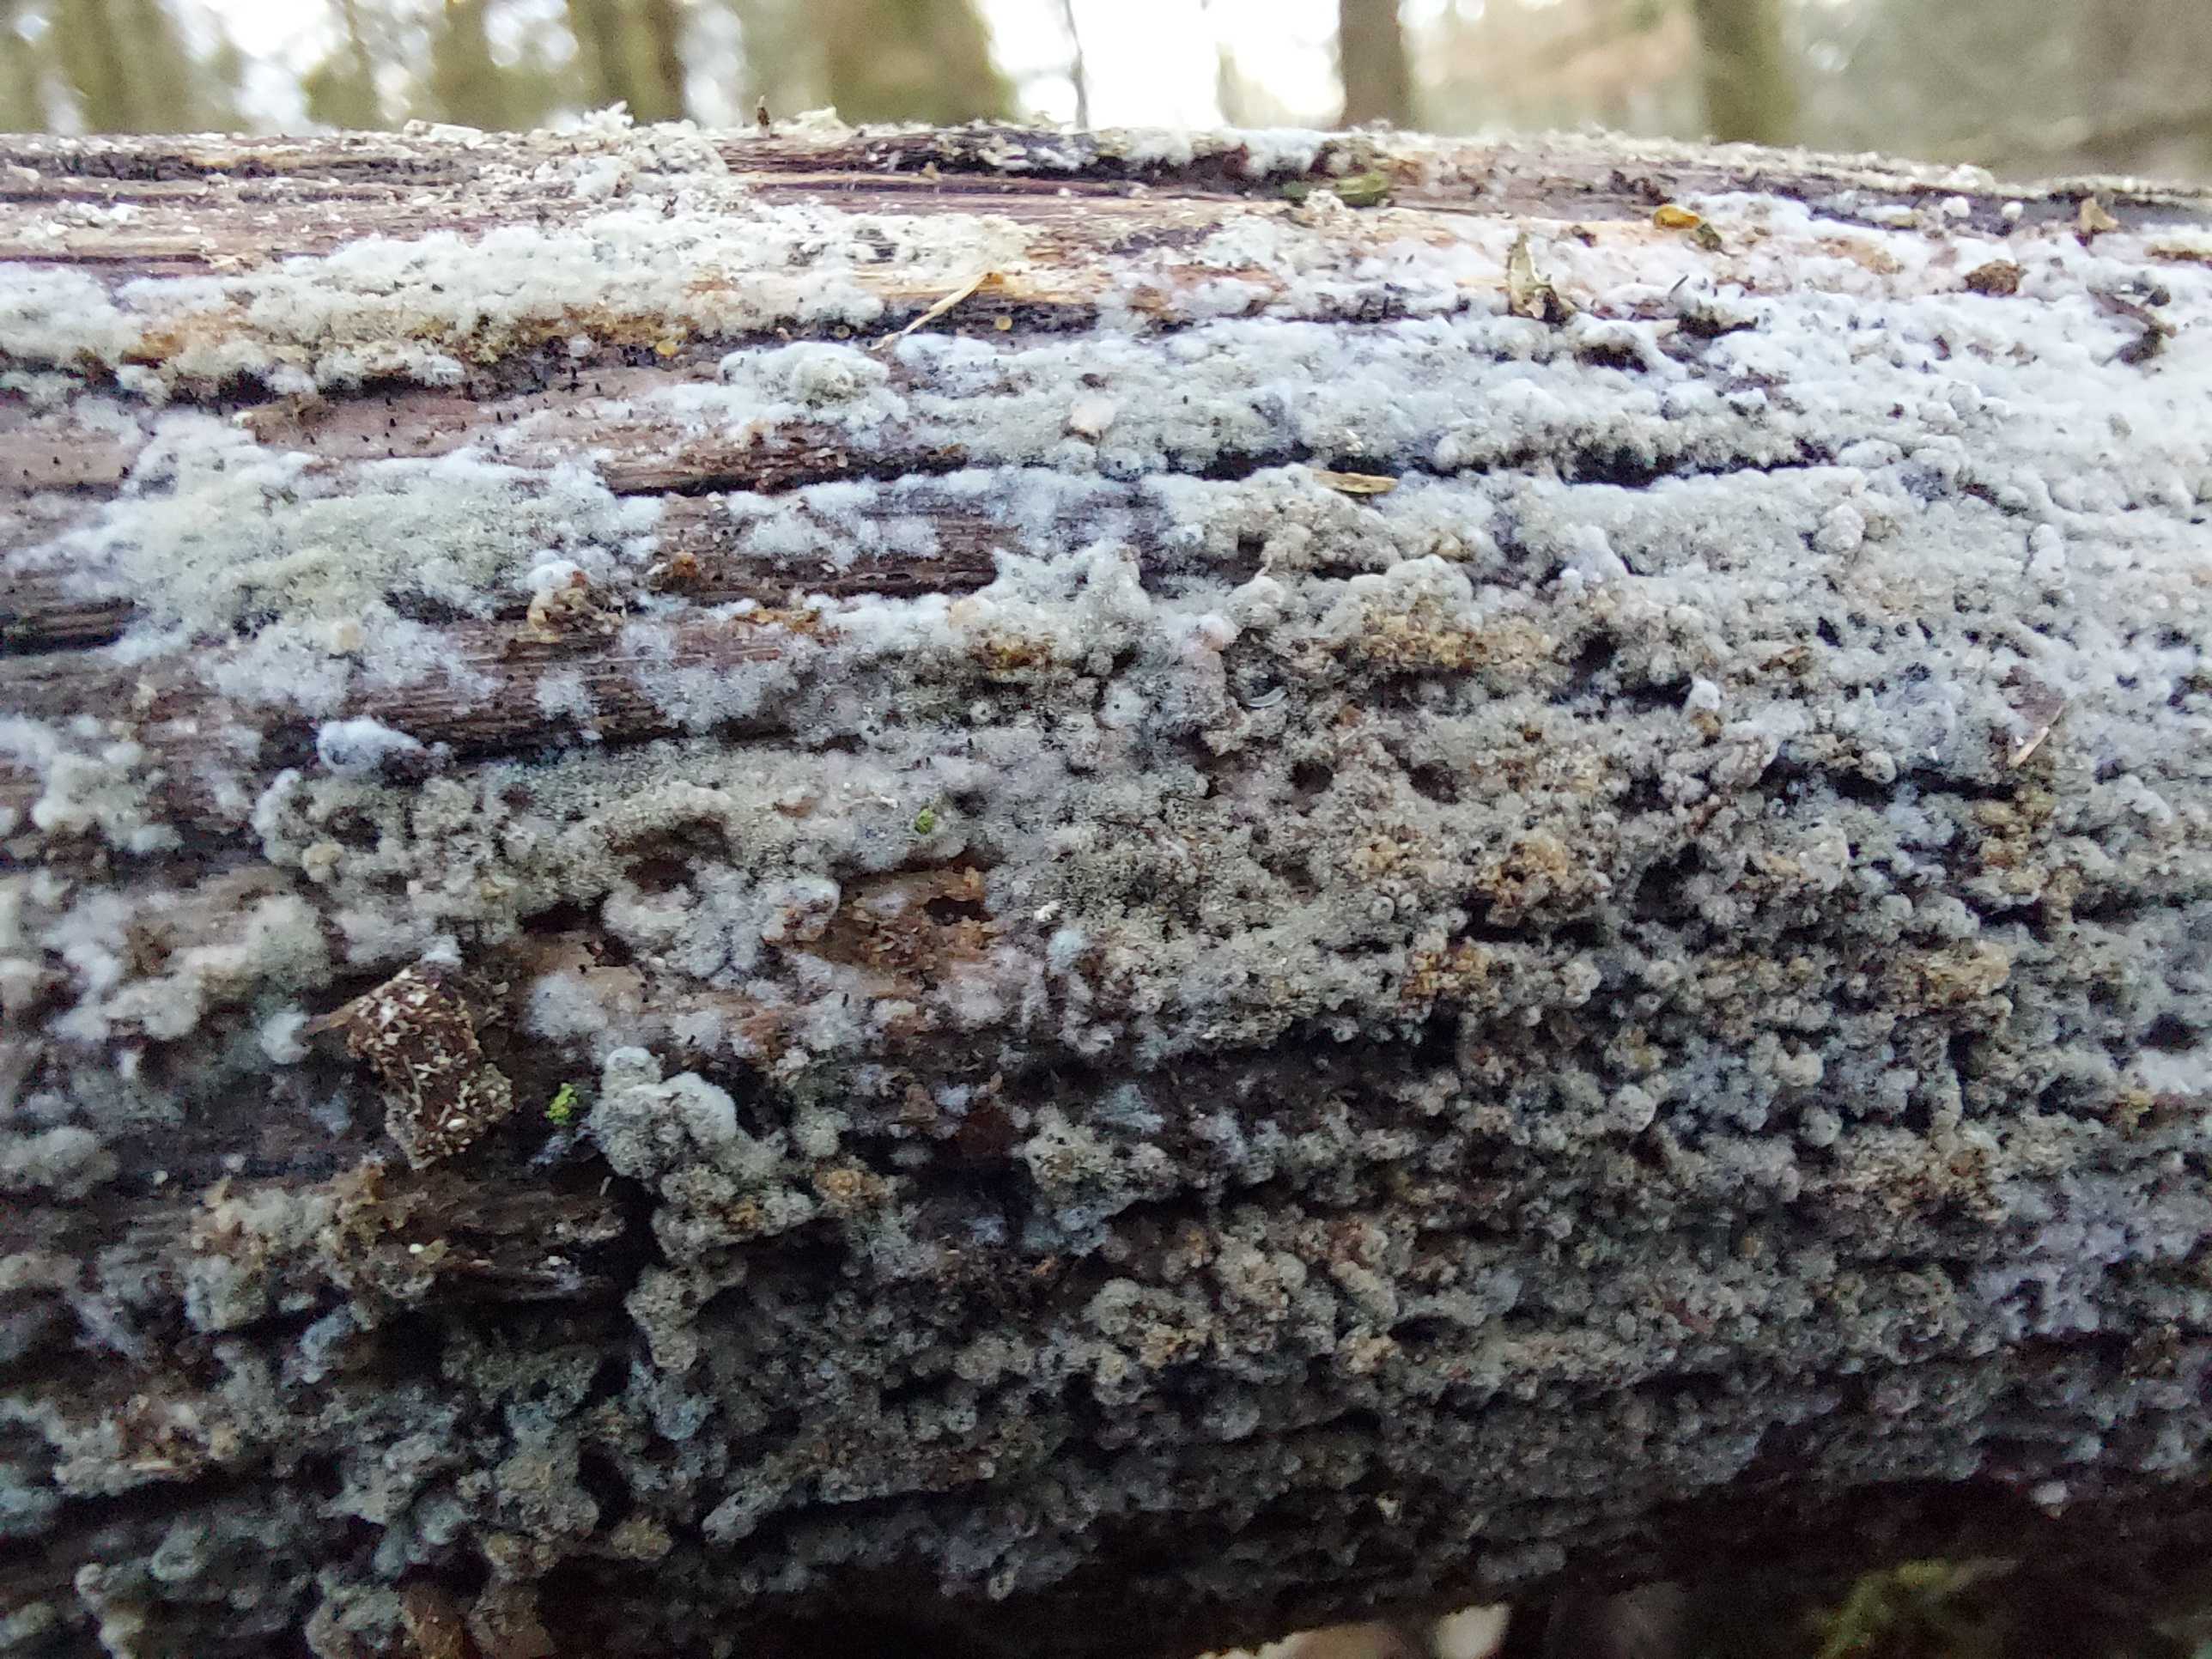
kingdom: Fungi
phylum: Basidiomycota
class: Agaricomycetes
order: Cantharellales
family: Botryobasidiaceae
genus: Botryobasidium
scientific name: Botryobasidium
